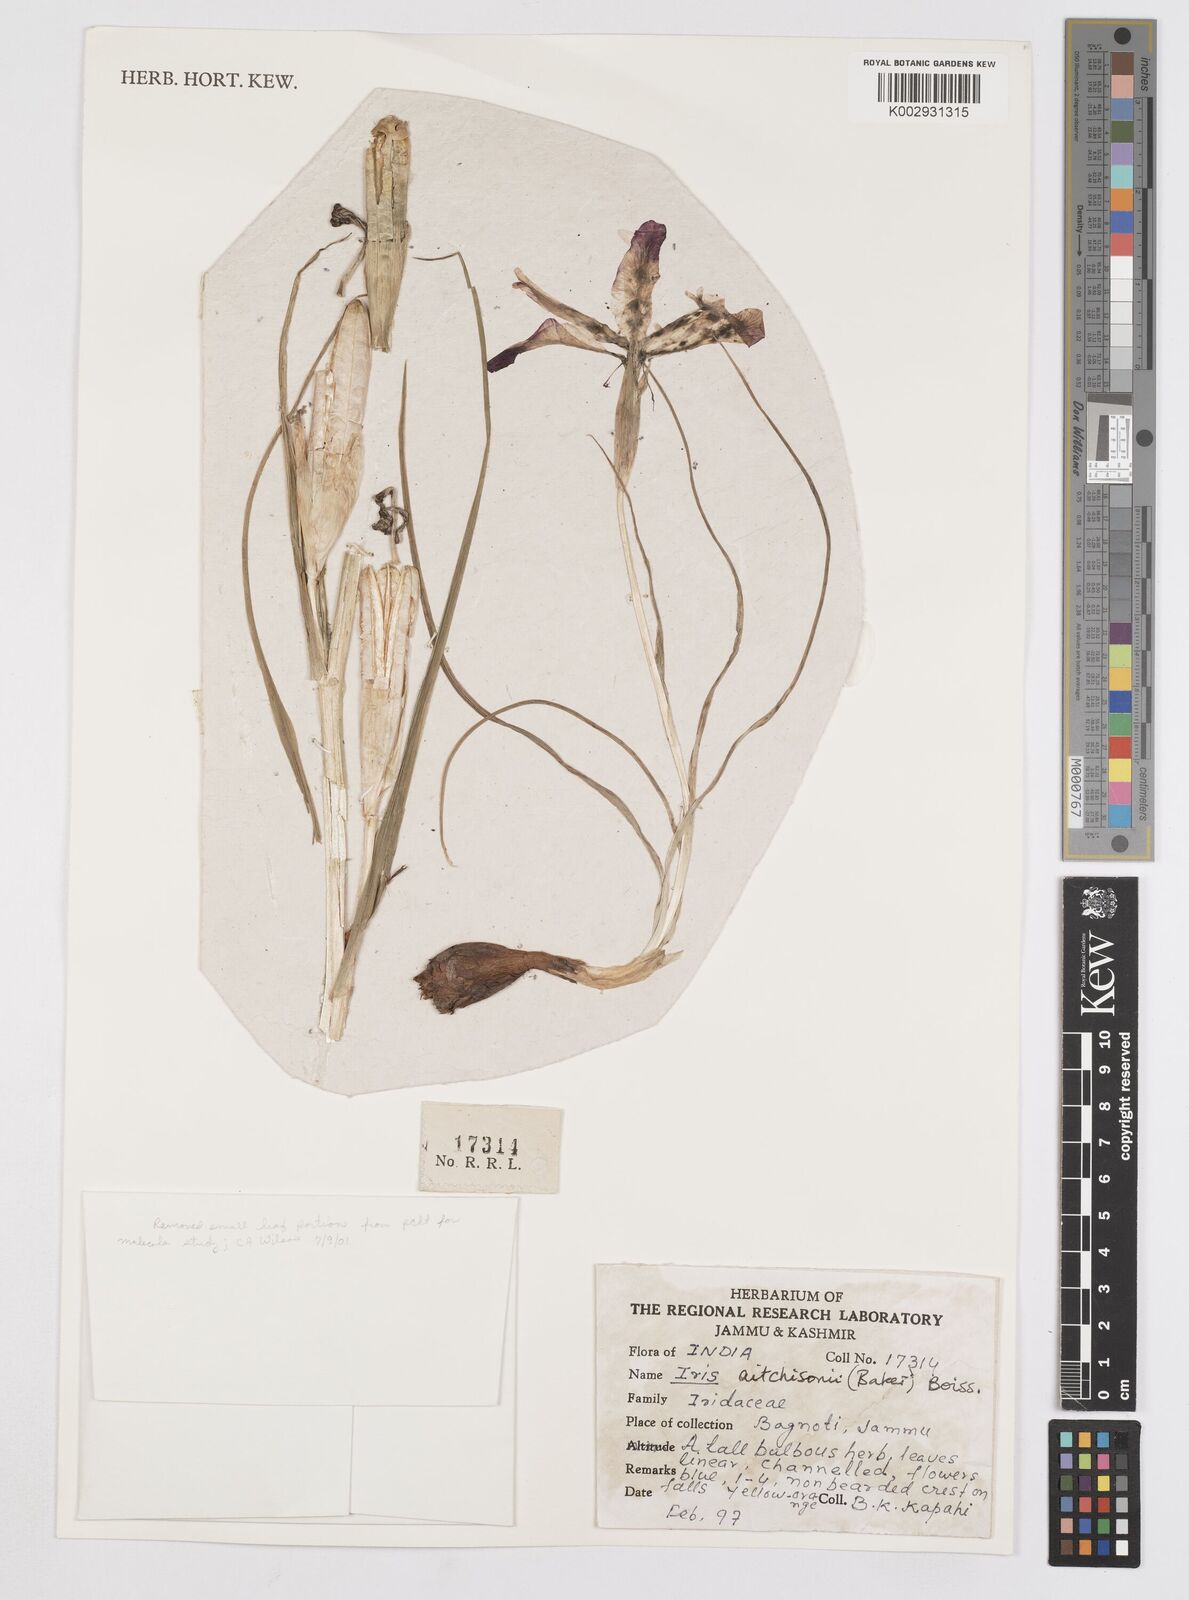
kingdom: Plantae
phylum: Tracheophyta
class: Liliopsida
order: Asparagales
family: Iridaceae
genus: Iris
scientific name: Iris aitchisonii
